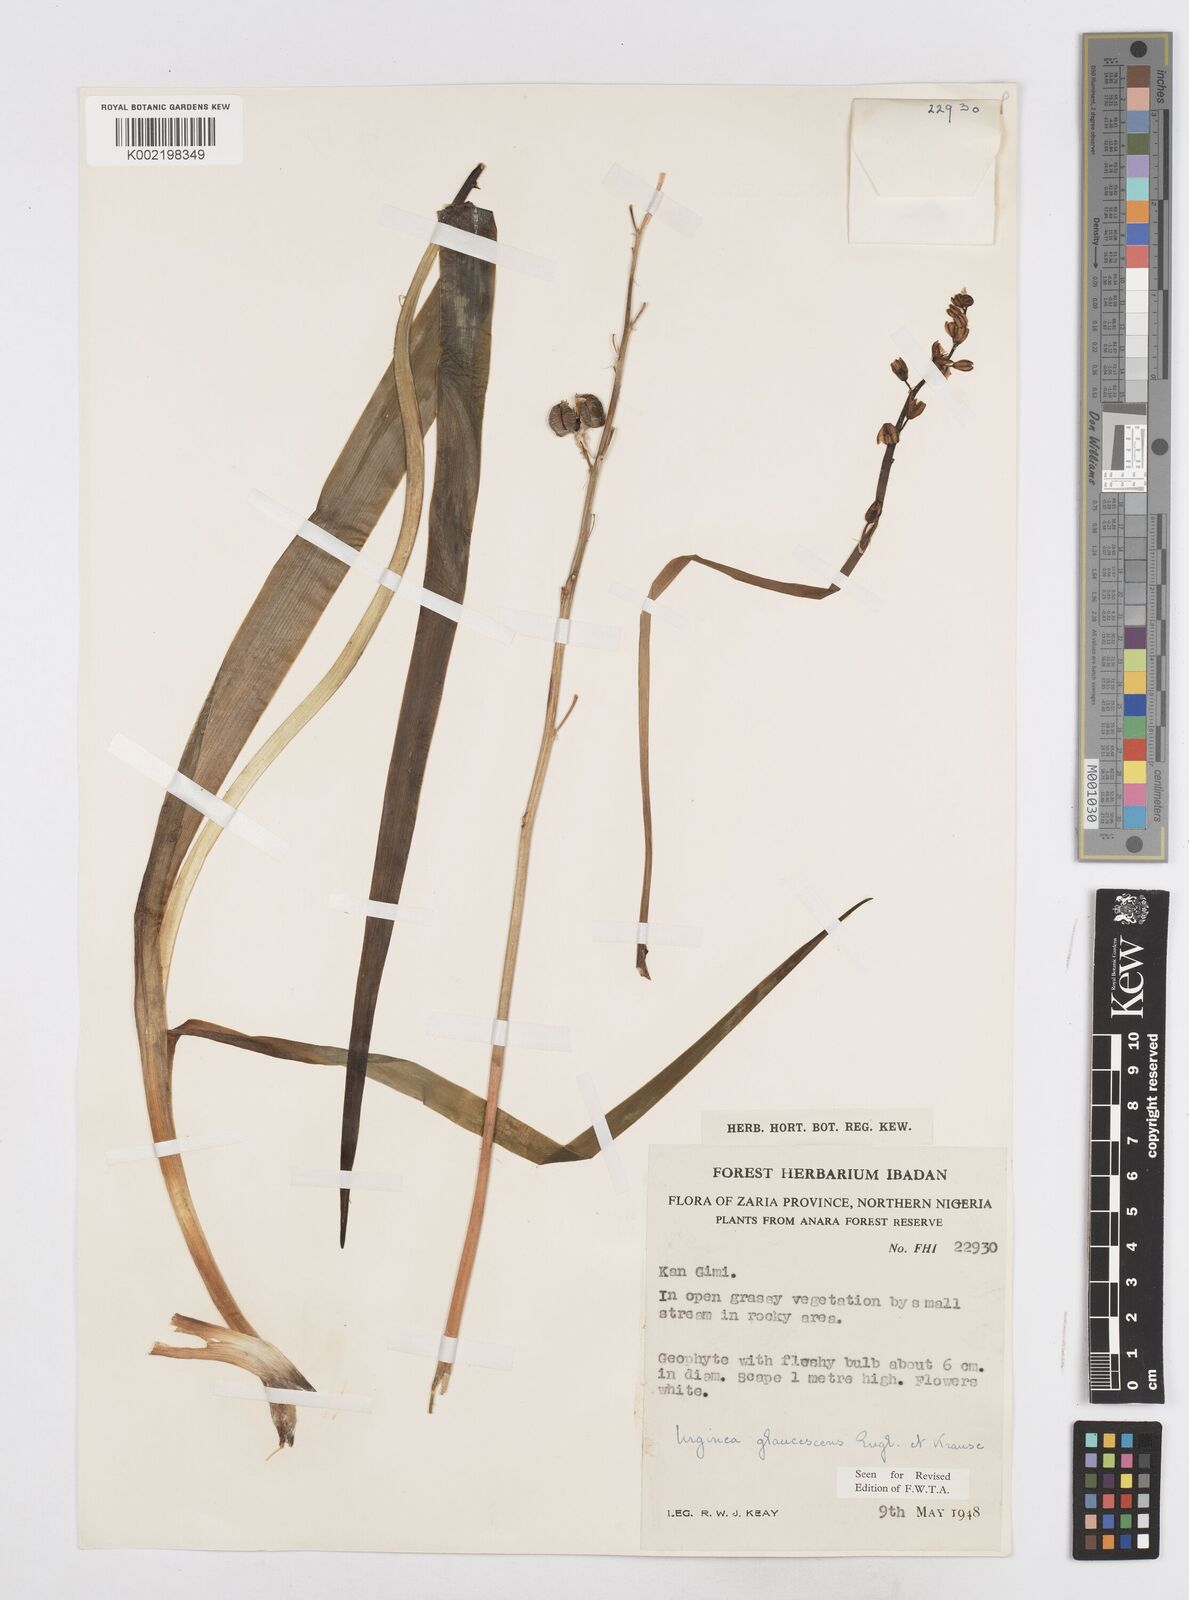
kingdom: Plantae
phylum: Tracheophyta
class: Liliopsida
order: Asparagales
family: Asparagaceae
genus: Ledebouria
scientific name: Ledebouria ensifolia
